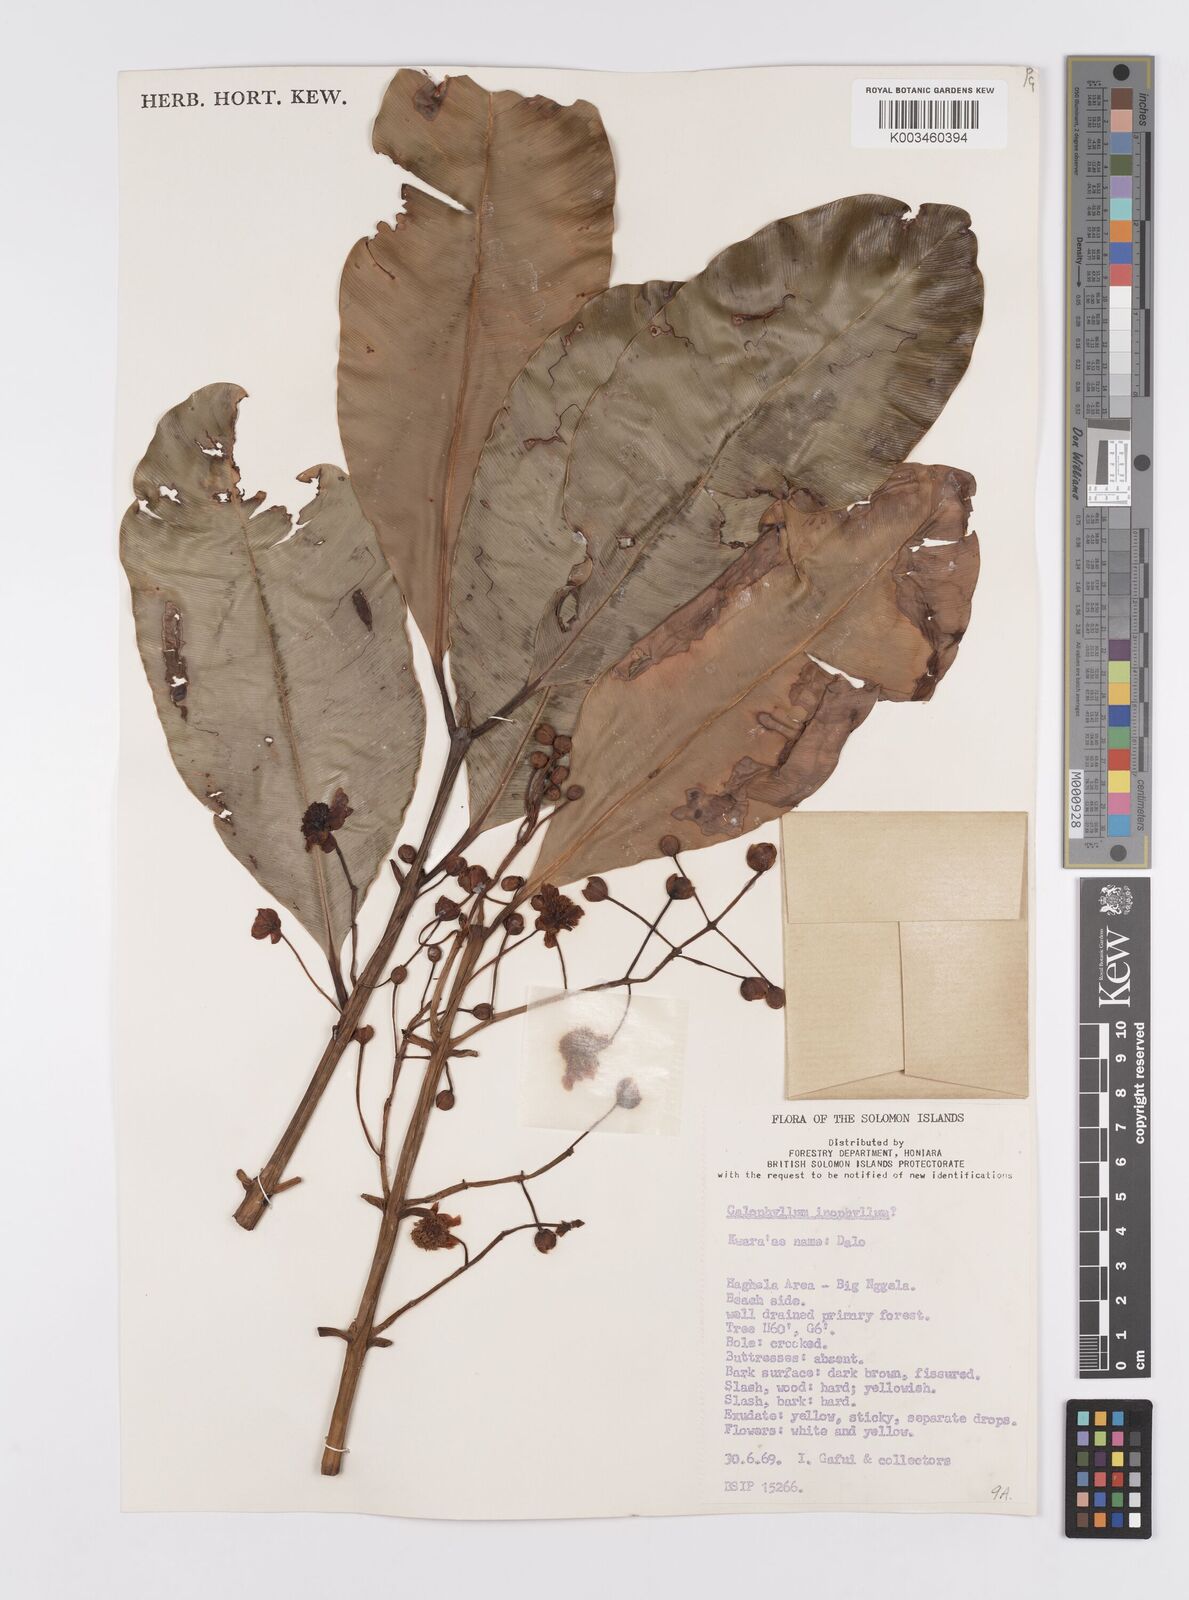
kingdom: Plantae
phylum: Tracheophyta
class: Magnoliopsida
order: Malpighiales
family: Calophyllaceae
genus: Calophyllum
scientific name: Calophyllum inophyllum
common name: Alexandrian laurel
